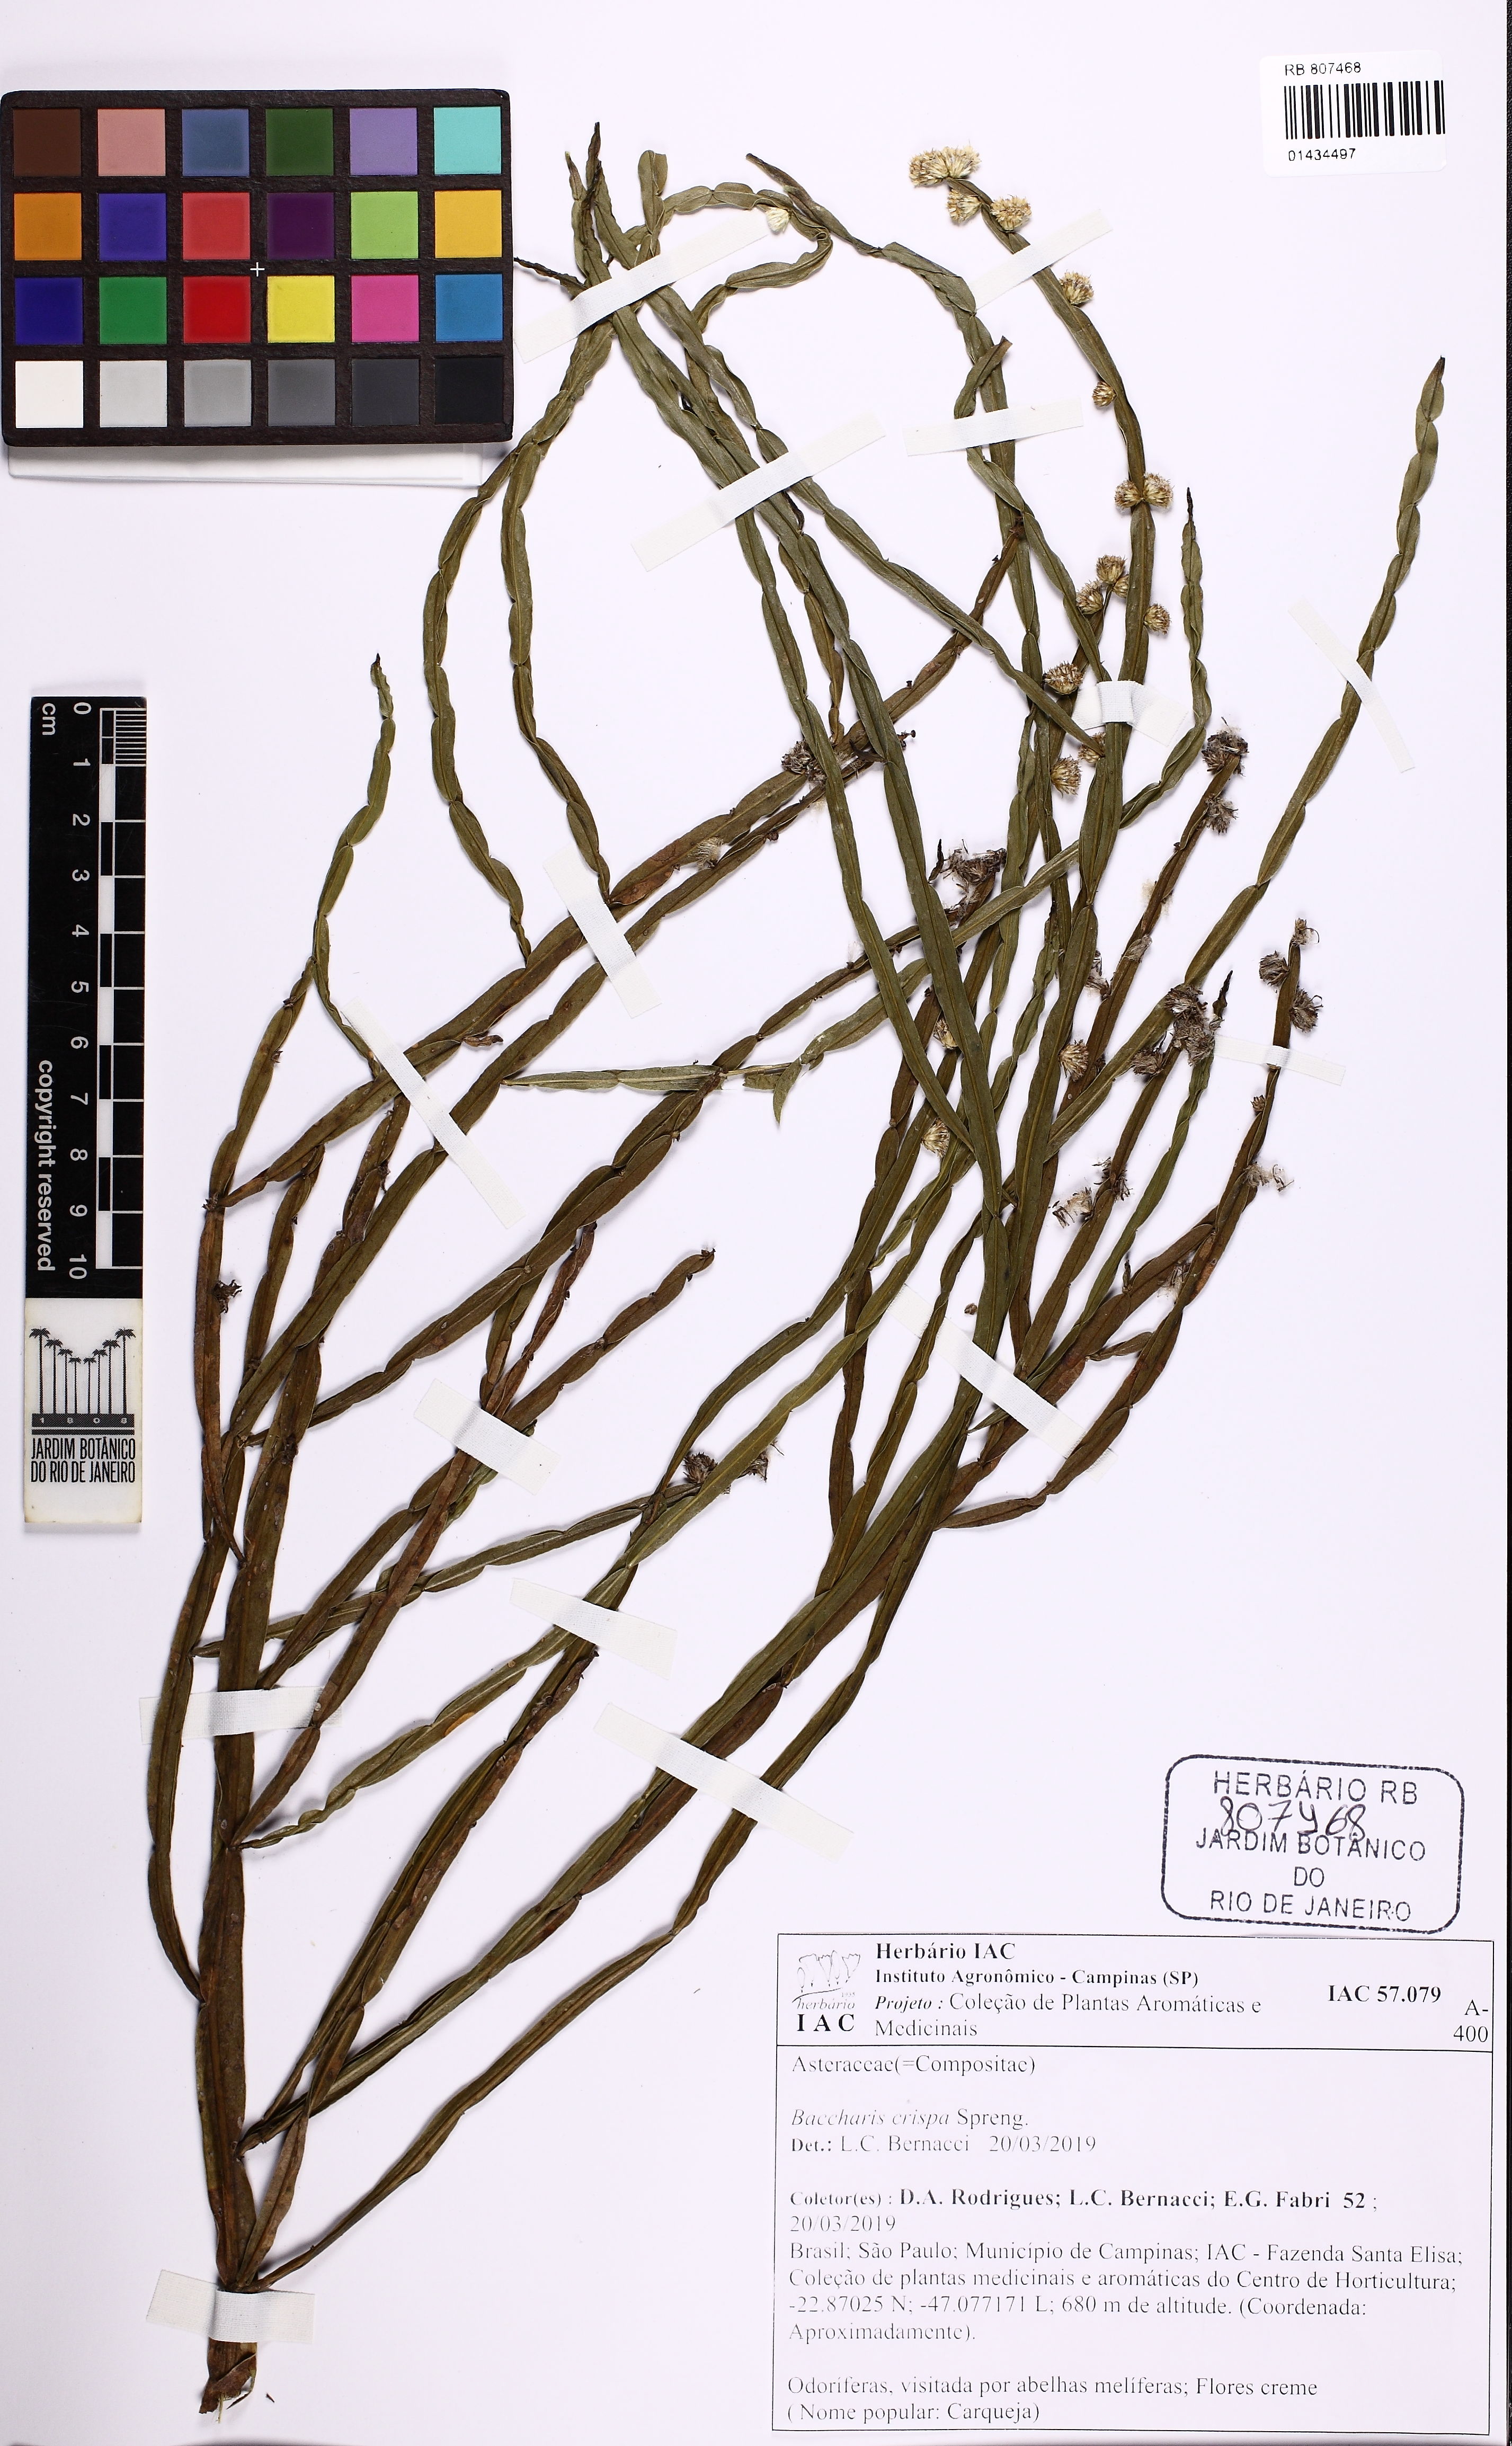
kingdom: Plantae
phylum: Tracheophyta
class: Magnoliopsida
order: Asterales
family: Asteraceae
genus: Baccharis
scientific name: Baccharis crispa
